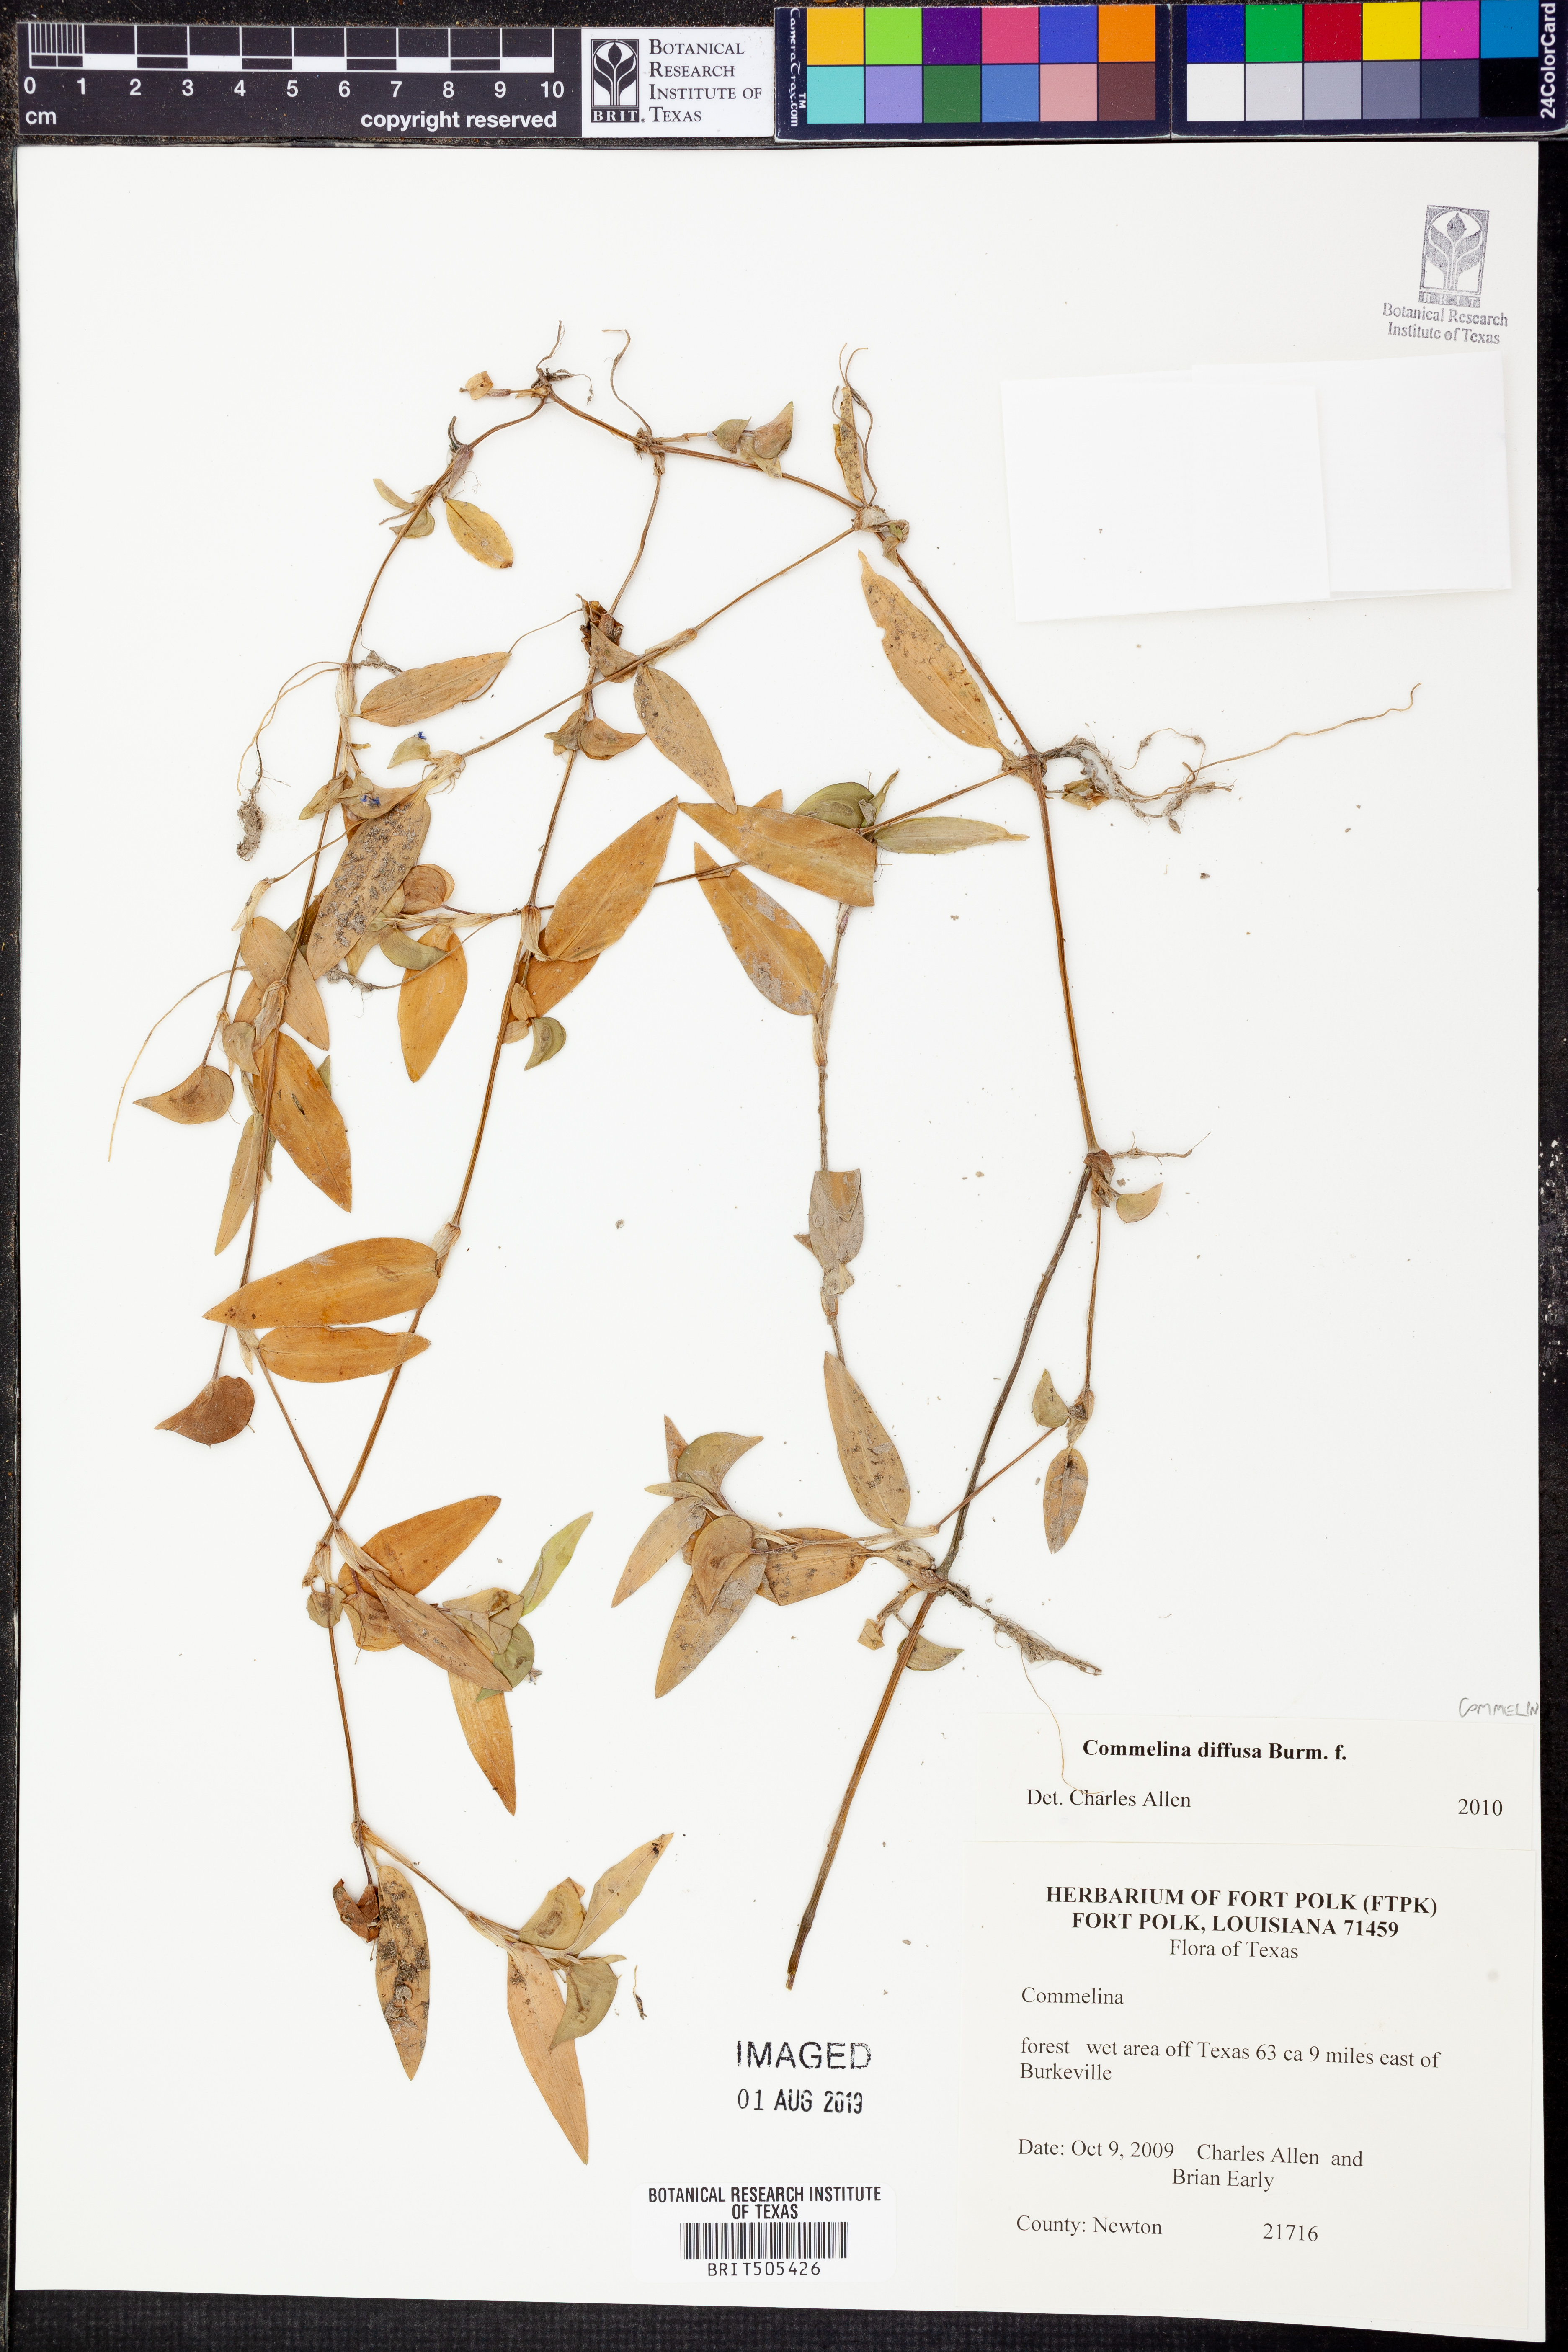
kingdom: Plantae
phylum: Tracheophyta
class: Liliopsida
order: Commelinales
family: Commelinaceae
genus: Commelina
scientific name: Commelina diffusa
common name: Climbing dayflower
